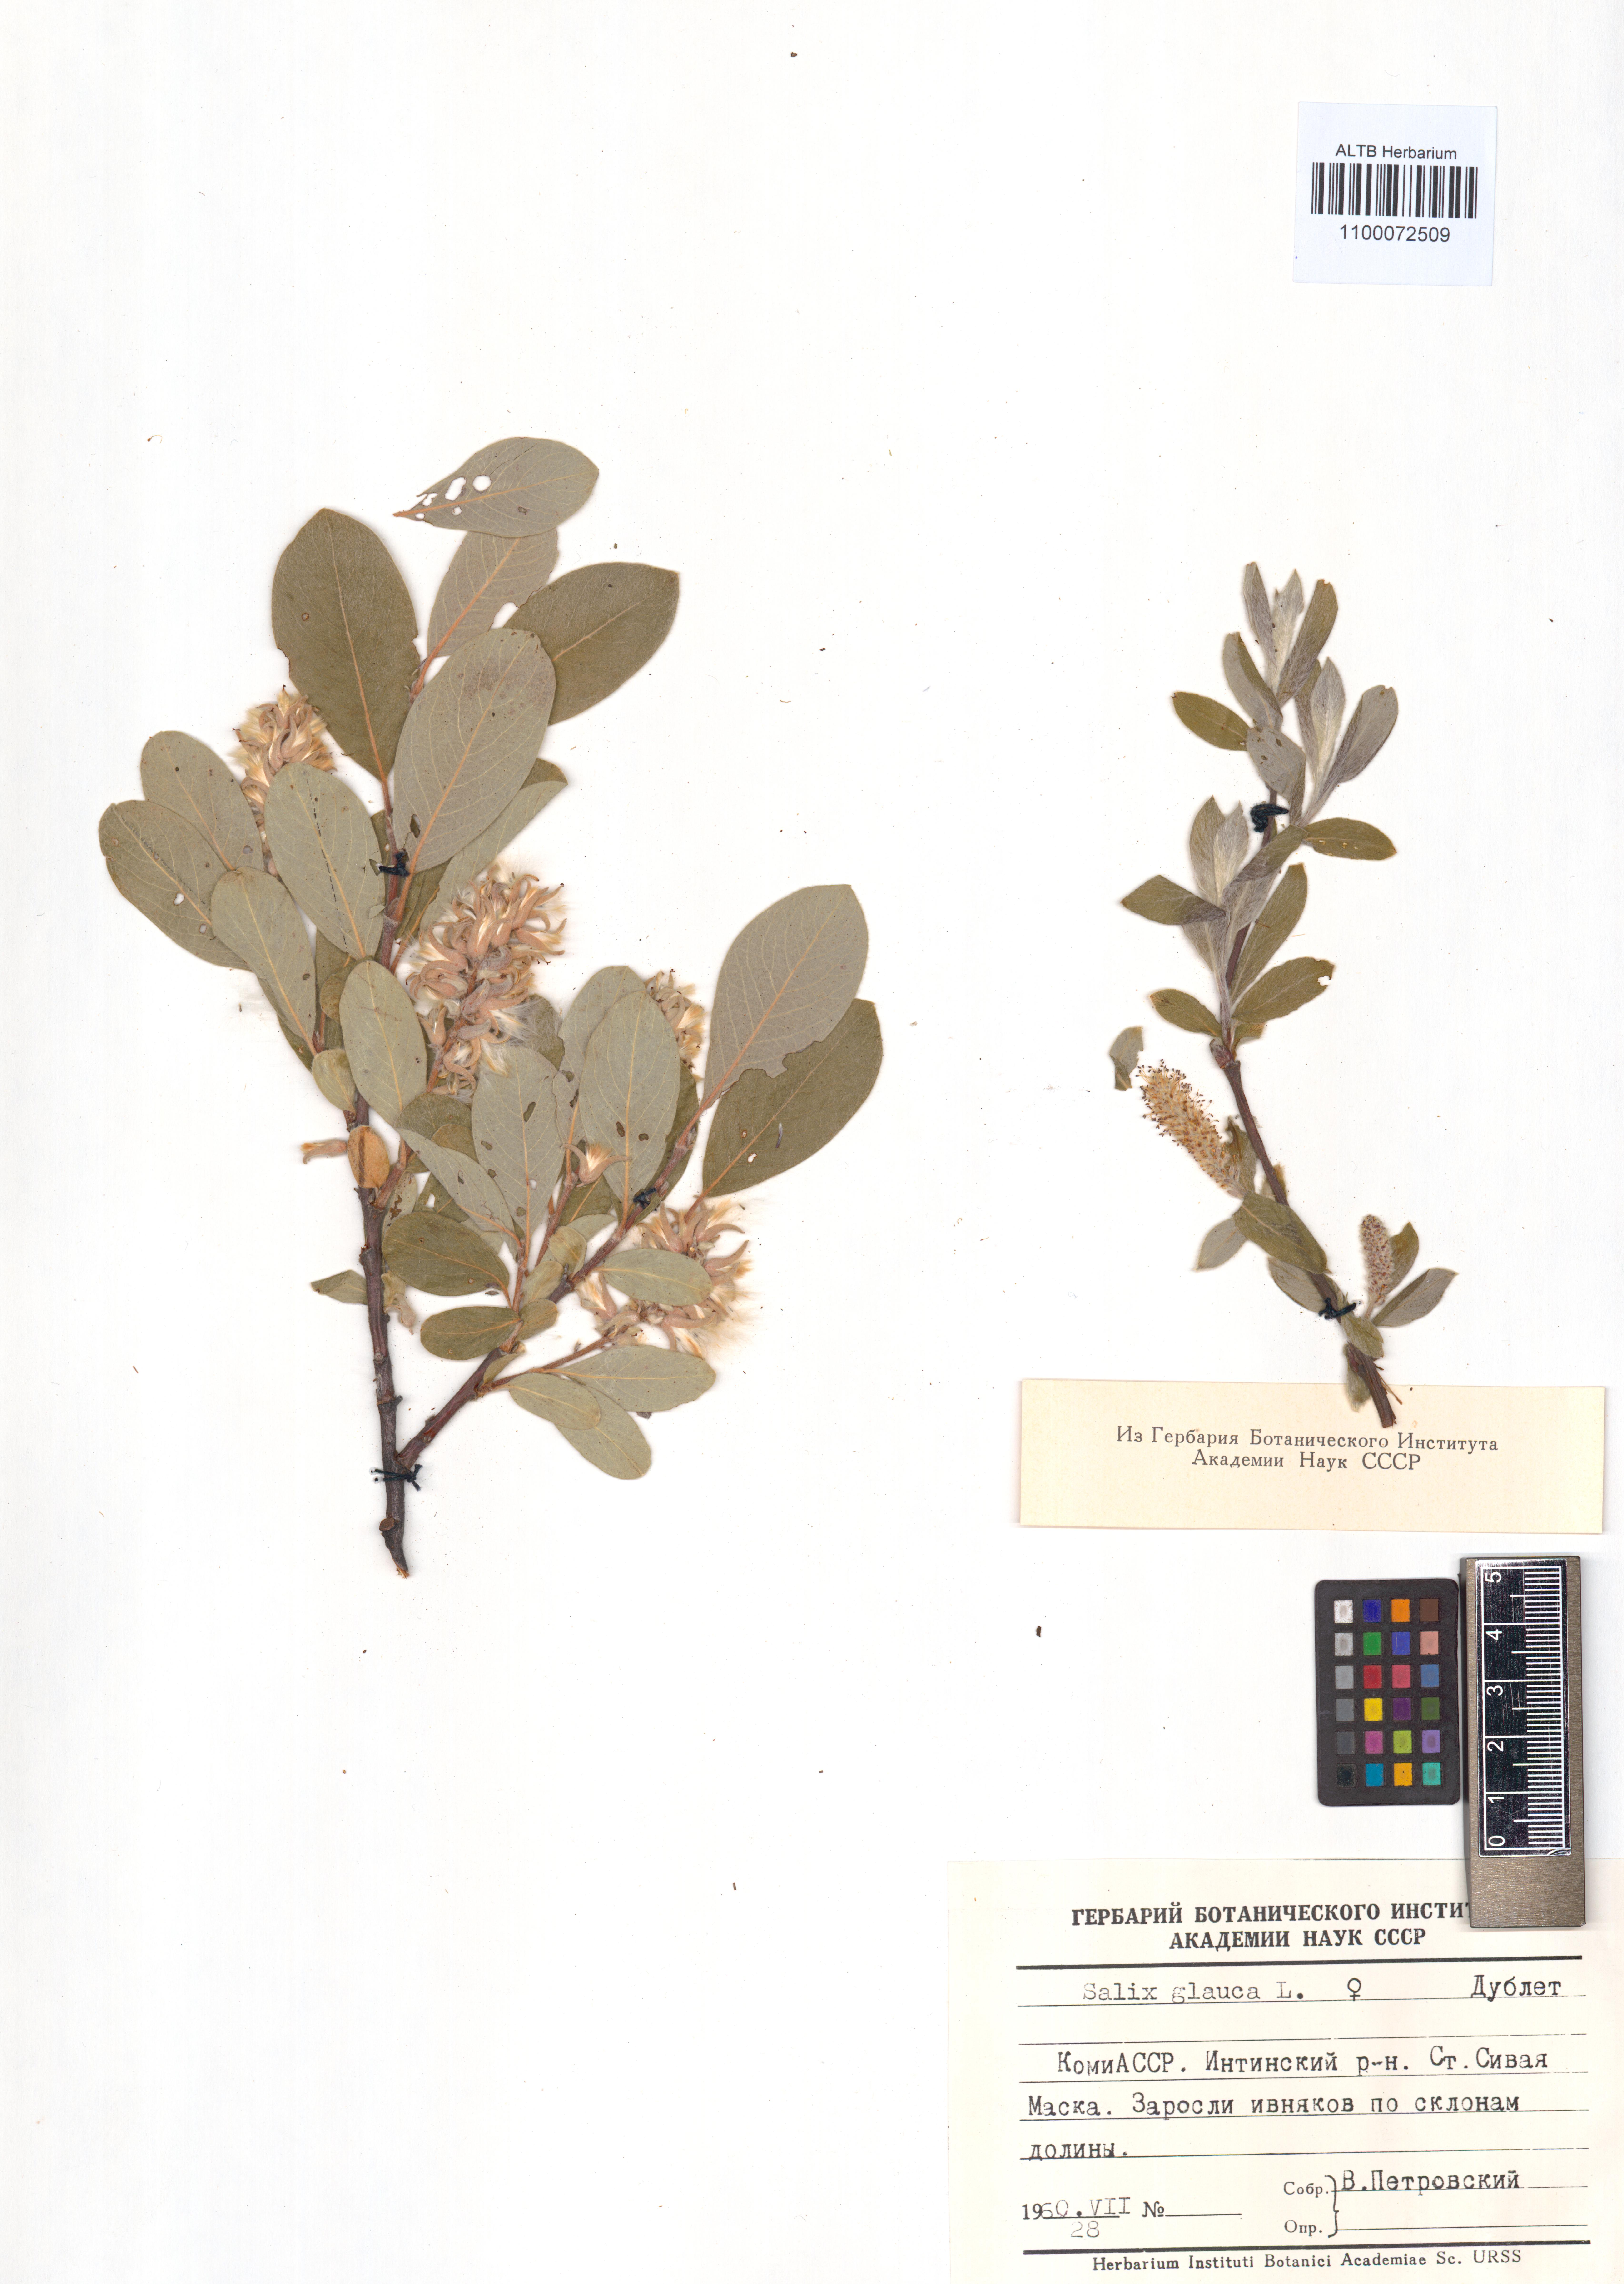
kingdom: Plantae
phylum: Tracheophyta
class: Magnoliopsida
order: Malpighiales
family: Salicaceae
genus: Salix
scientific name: Salix glauca
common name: Glaucous willow
